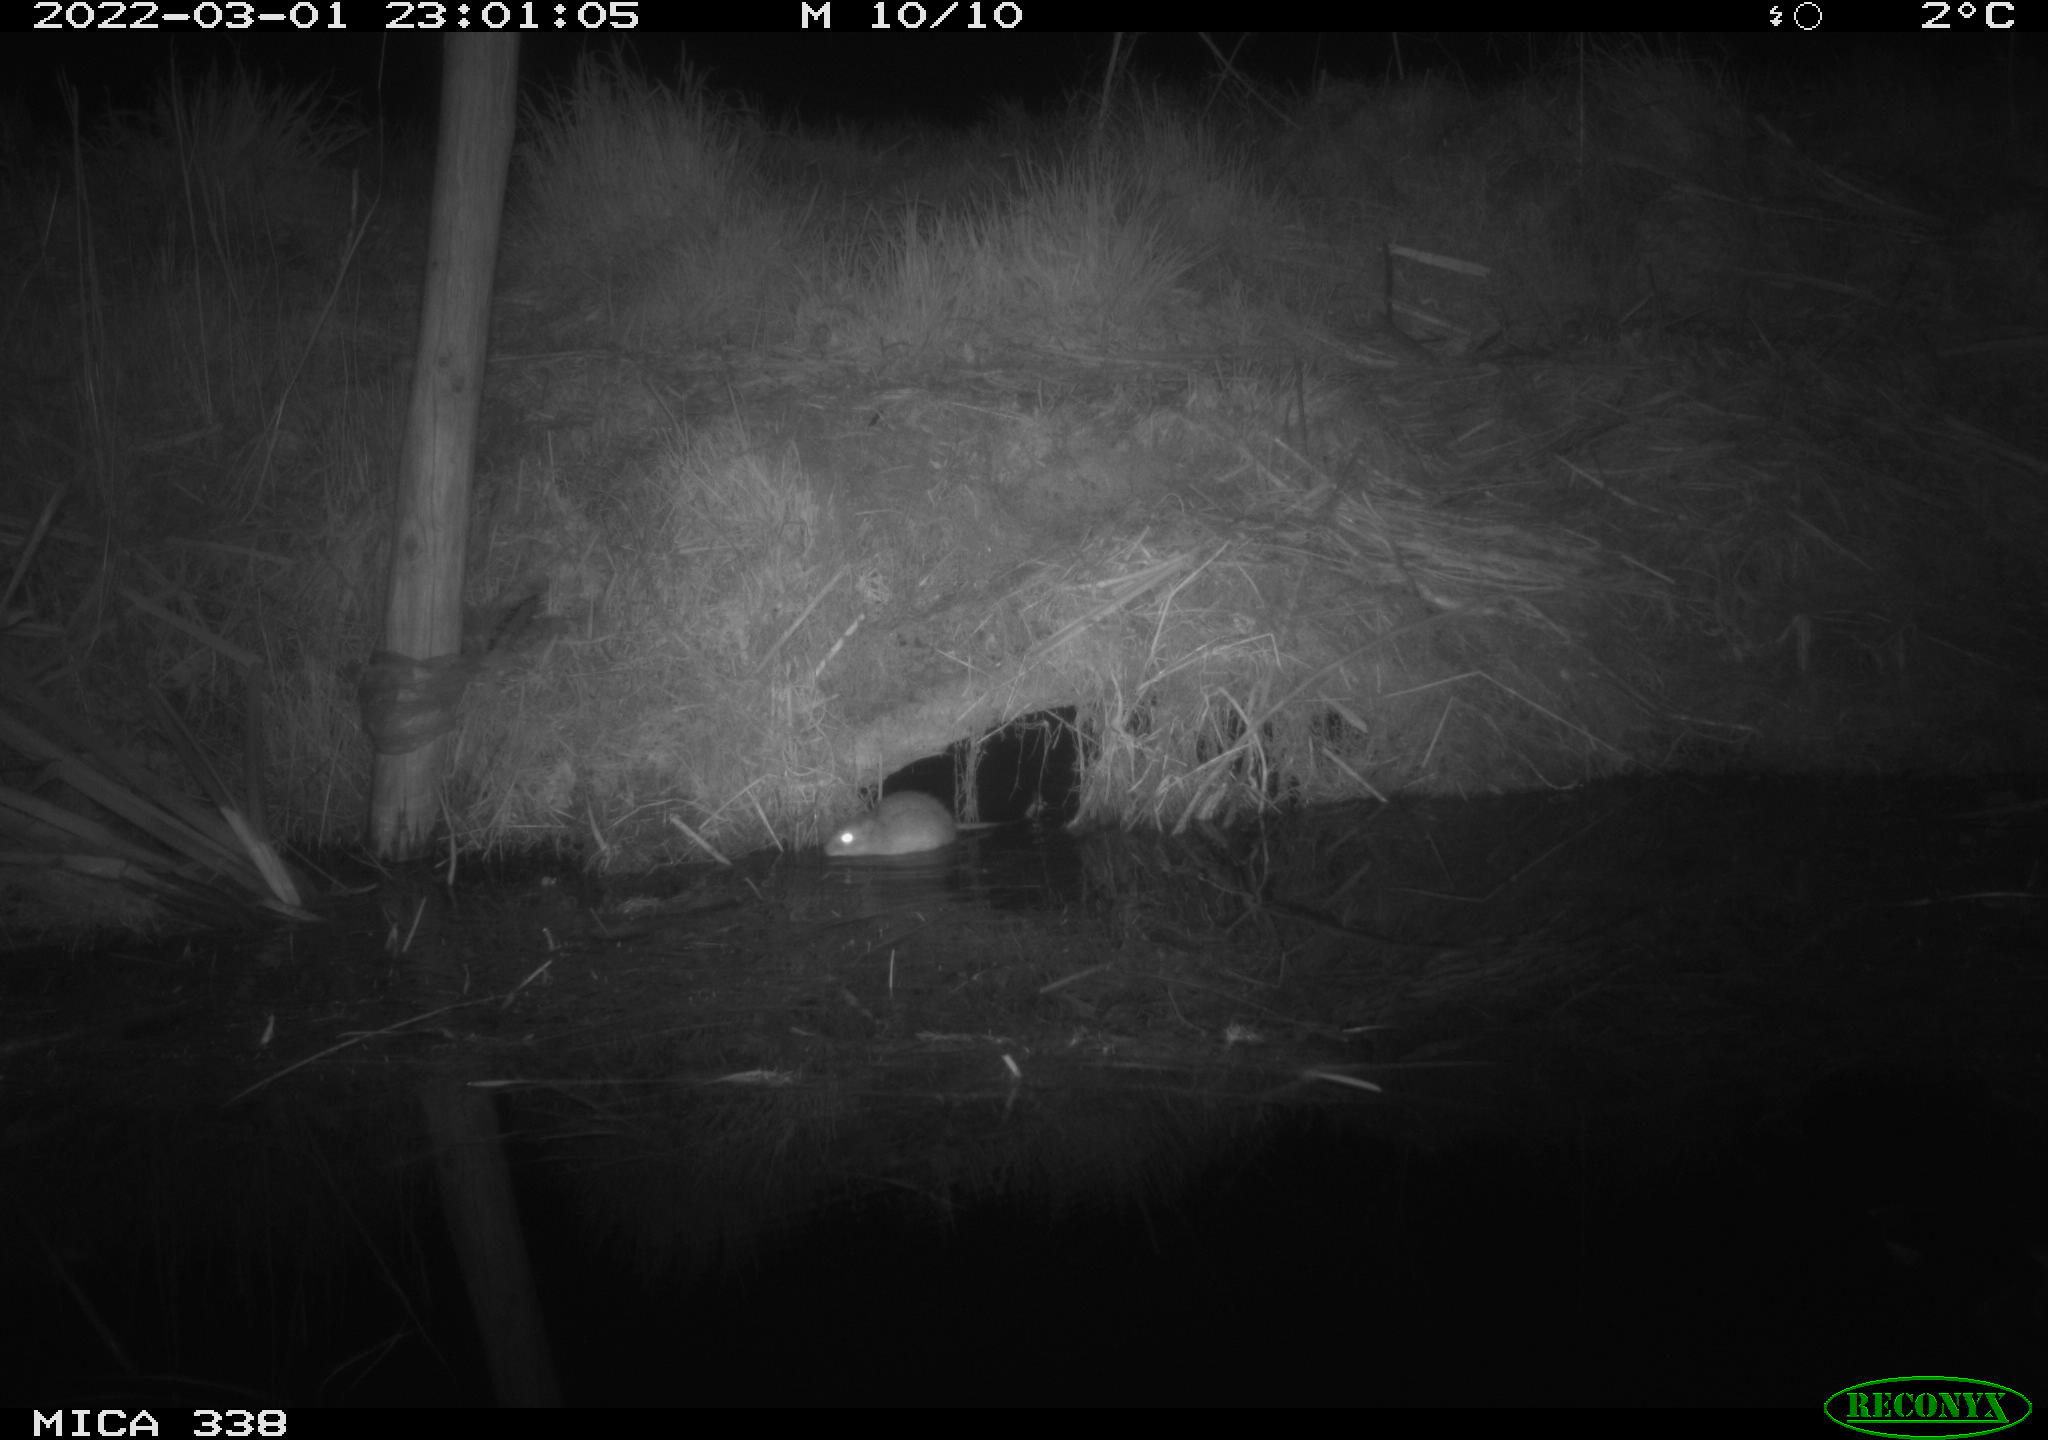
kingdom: Animalia
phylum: Chordata
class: Mammalia
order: Rodentia
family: Muridae
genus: Rattus
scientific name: Rattus norvegicus
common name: Brown rat
